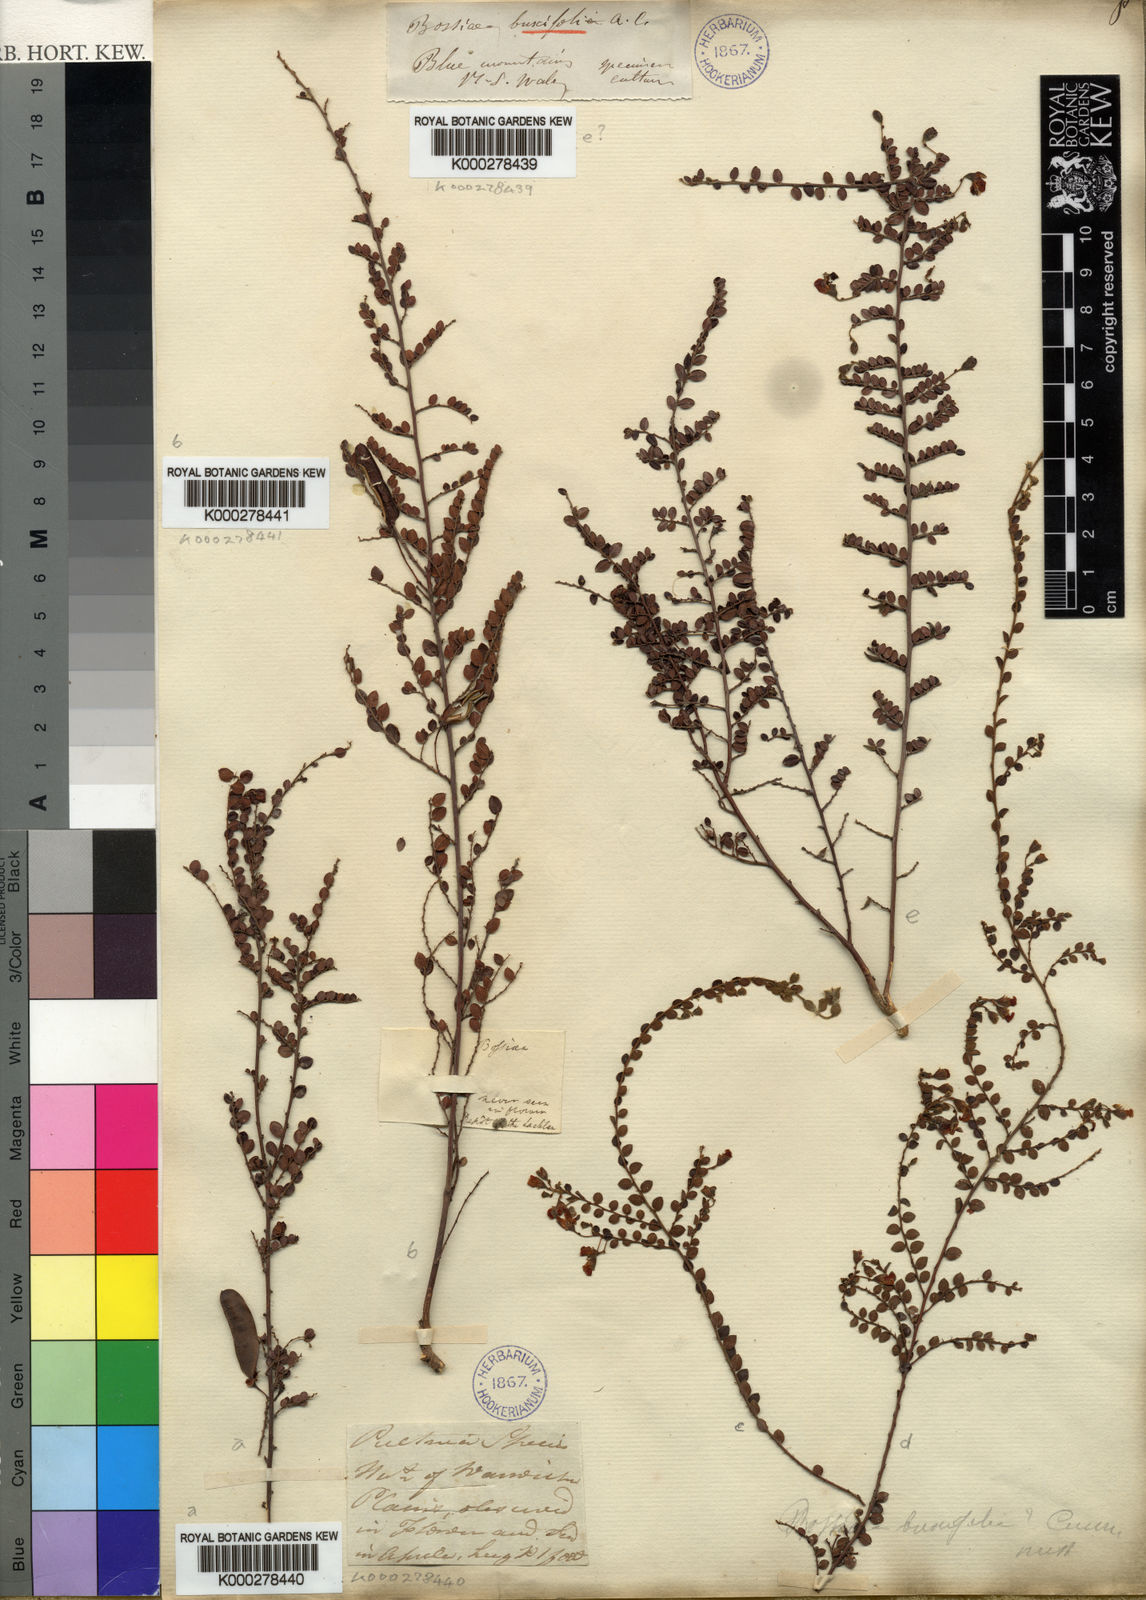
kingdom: Plantae
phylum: Tracheophyta
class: Magnoliopsida
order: Fabales
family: Fabaceae
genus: Bossiaea
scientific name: Bossiaea buxifolia
